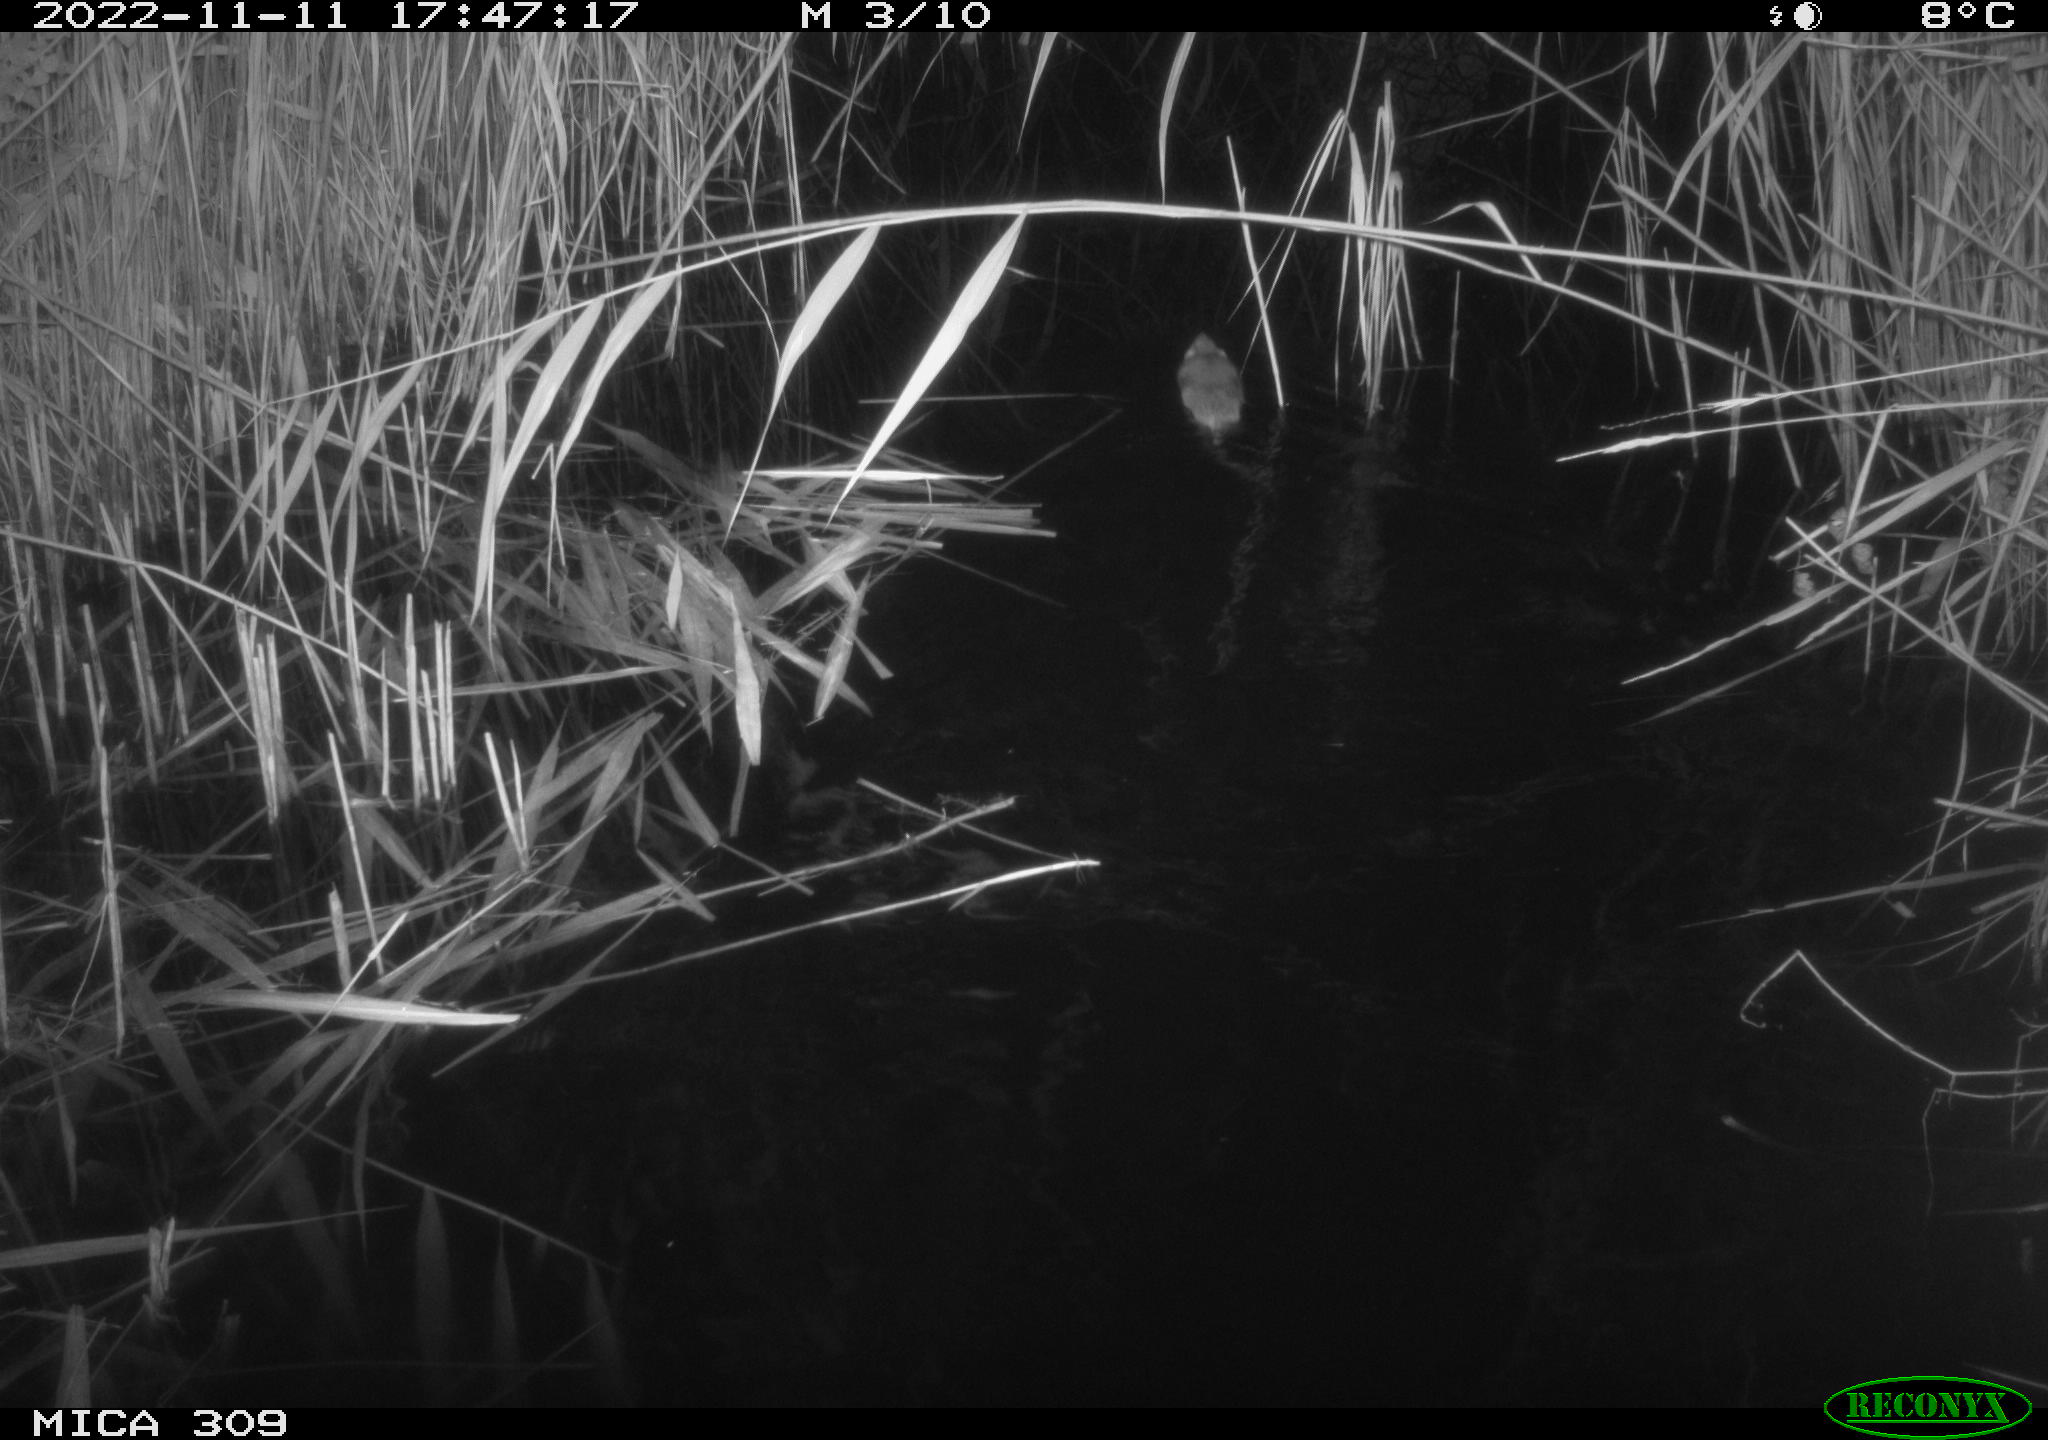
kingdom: Animalia
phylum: Chordata
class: Mammalia
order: Rodentia
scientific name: Rodentia
